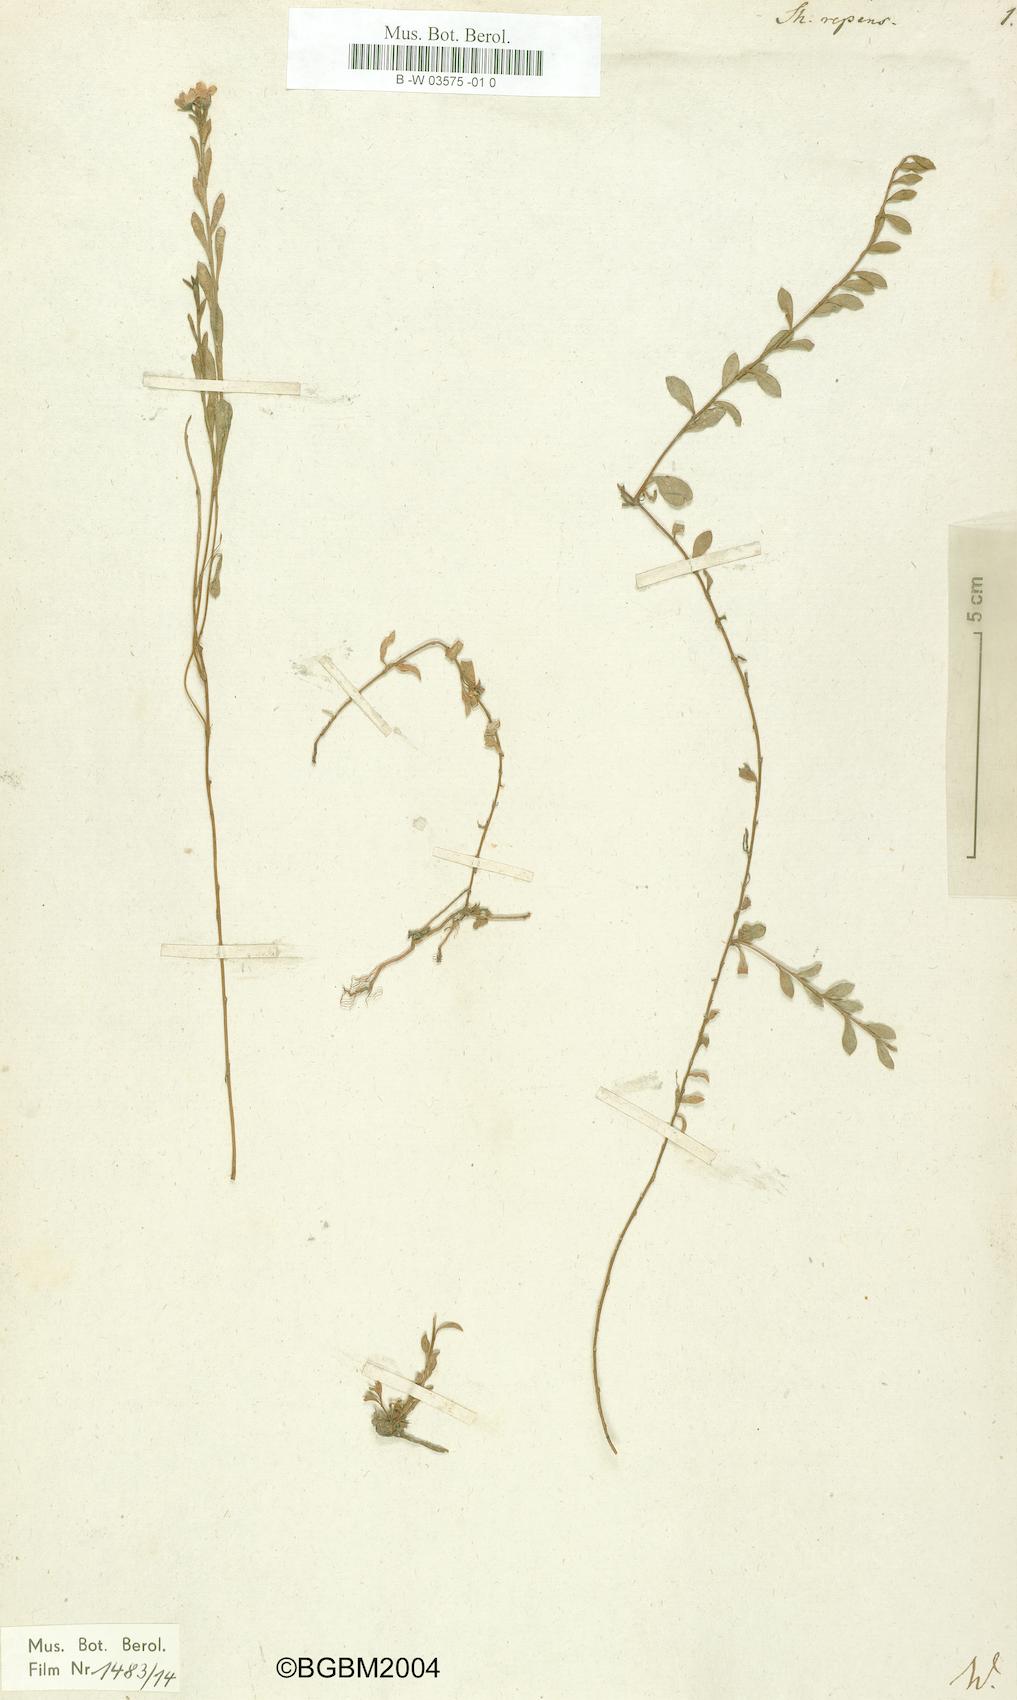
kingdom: Plantae
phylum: Tracheophyta
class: Magnoliopsida
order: Ericales
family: Primulaceae
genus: Samolus
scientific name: Samolus repens
